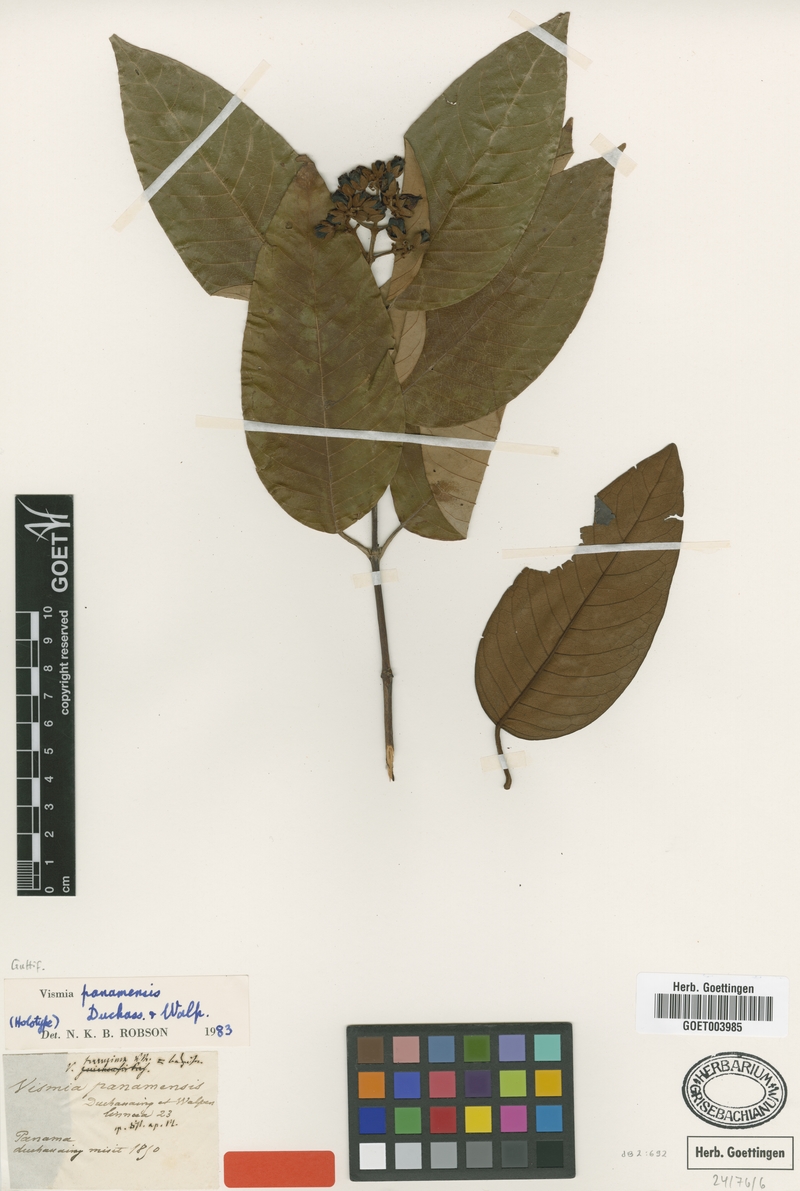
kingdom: Plantae
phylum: Tracheophyta
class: Magnoliopsida
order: Malpighiales
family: Hypericaceae
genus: Vismia
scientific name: Vismia baccifera
